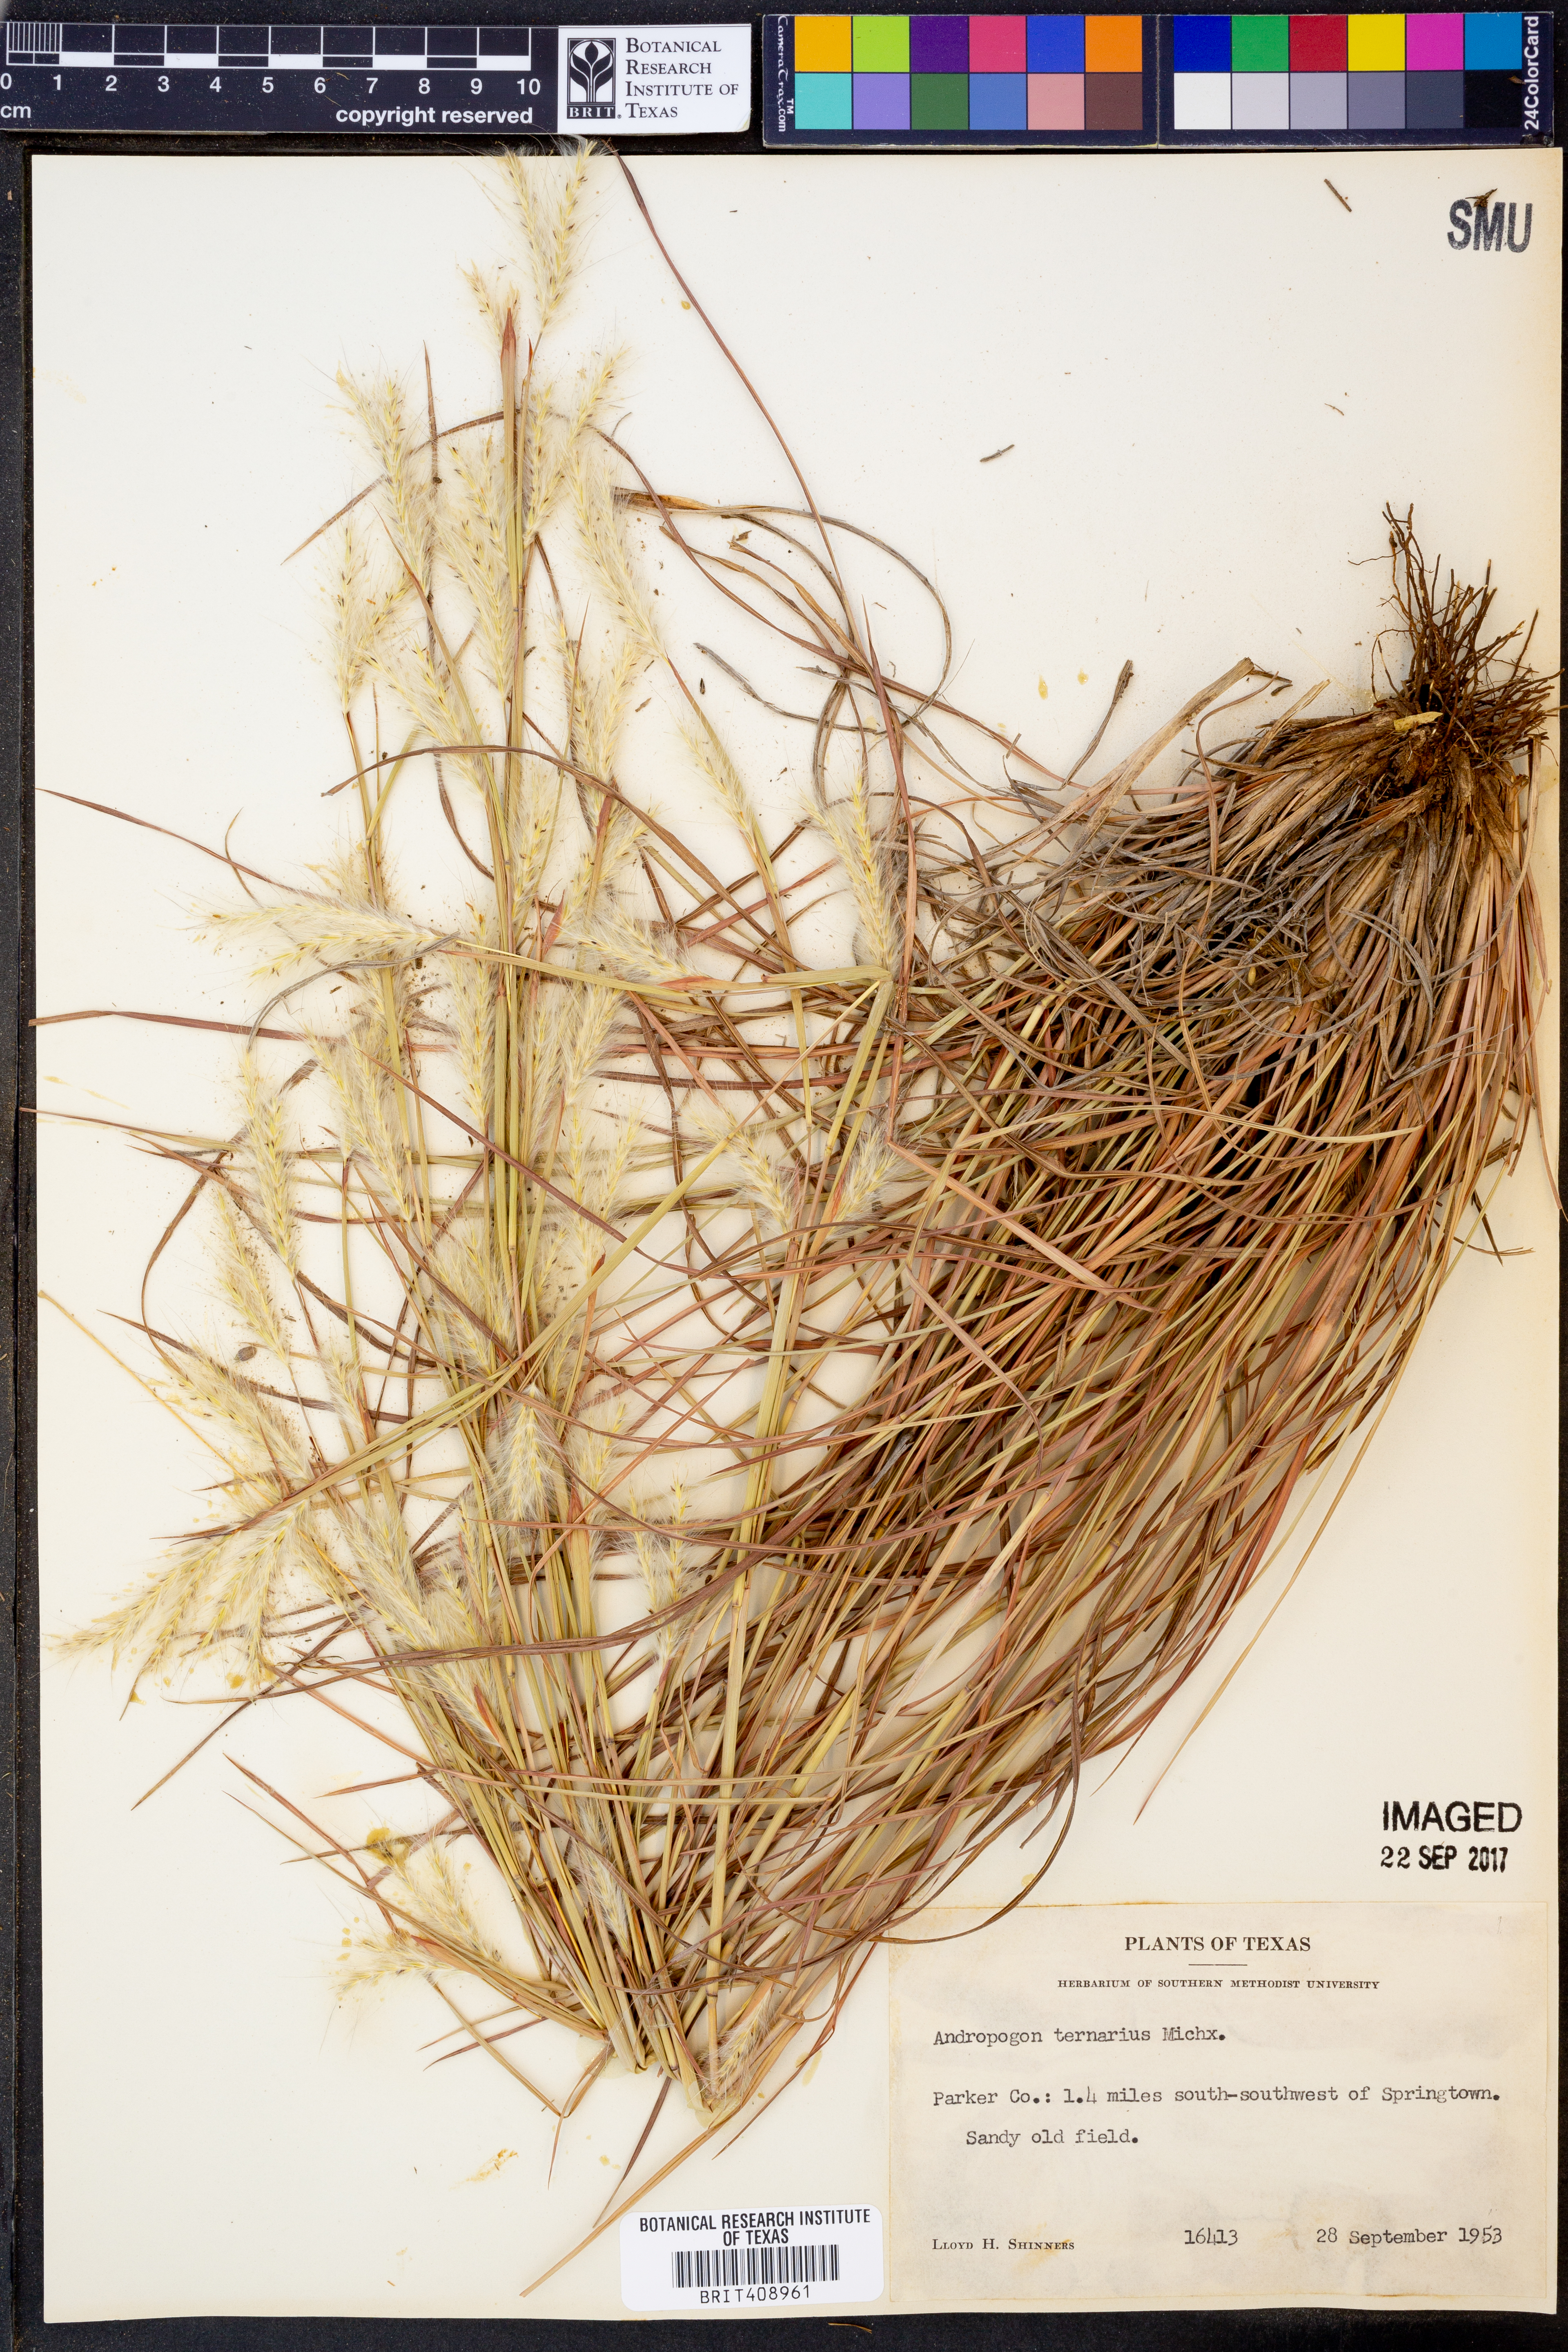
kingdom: Plantae
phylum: Tracheophyta
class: Liliopsida
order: Poales
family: Poaceae
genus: Andropogon
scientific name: Andropogon ternarius
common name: Split bluestem
